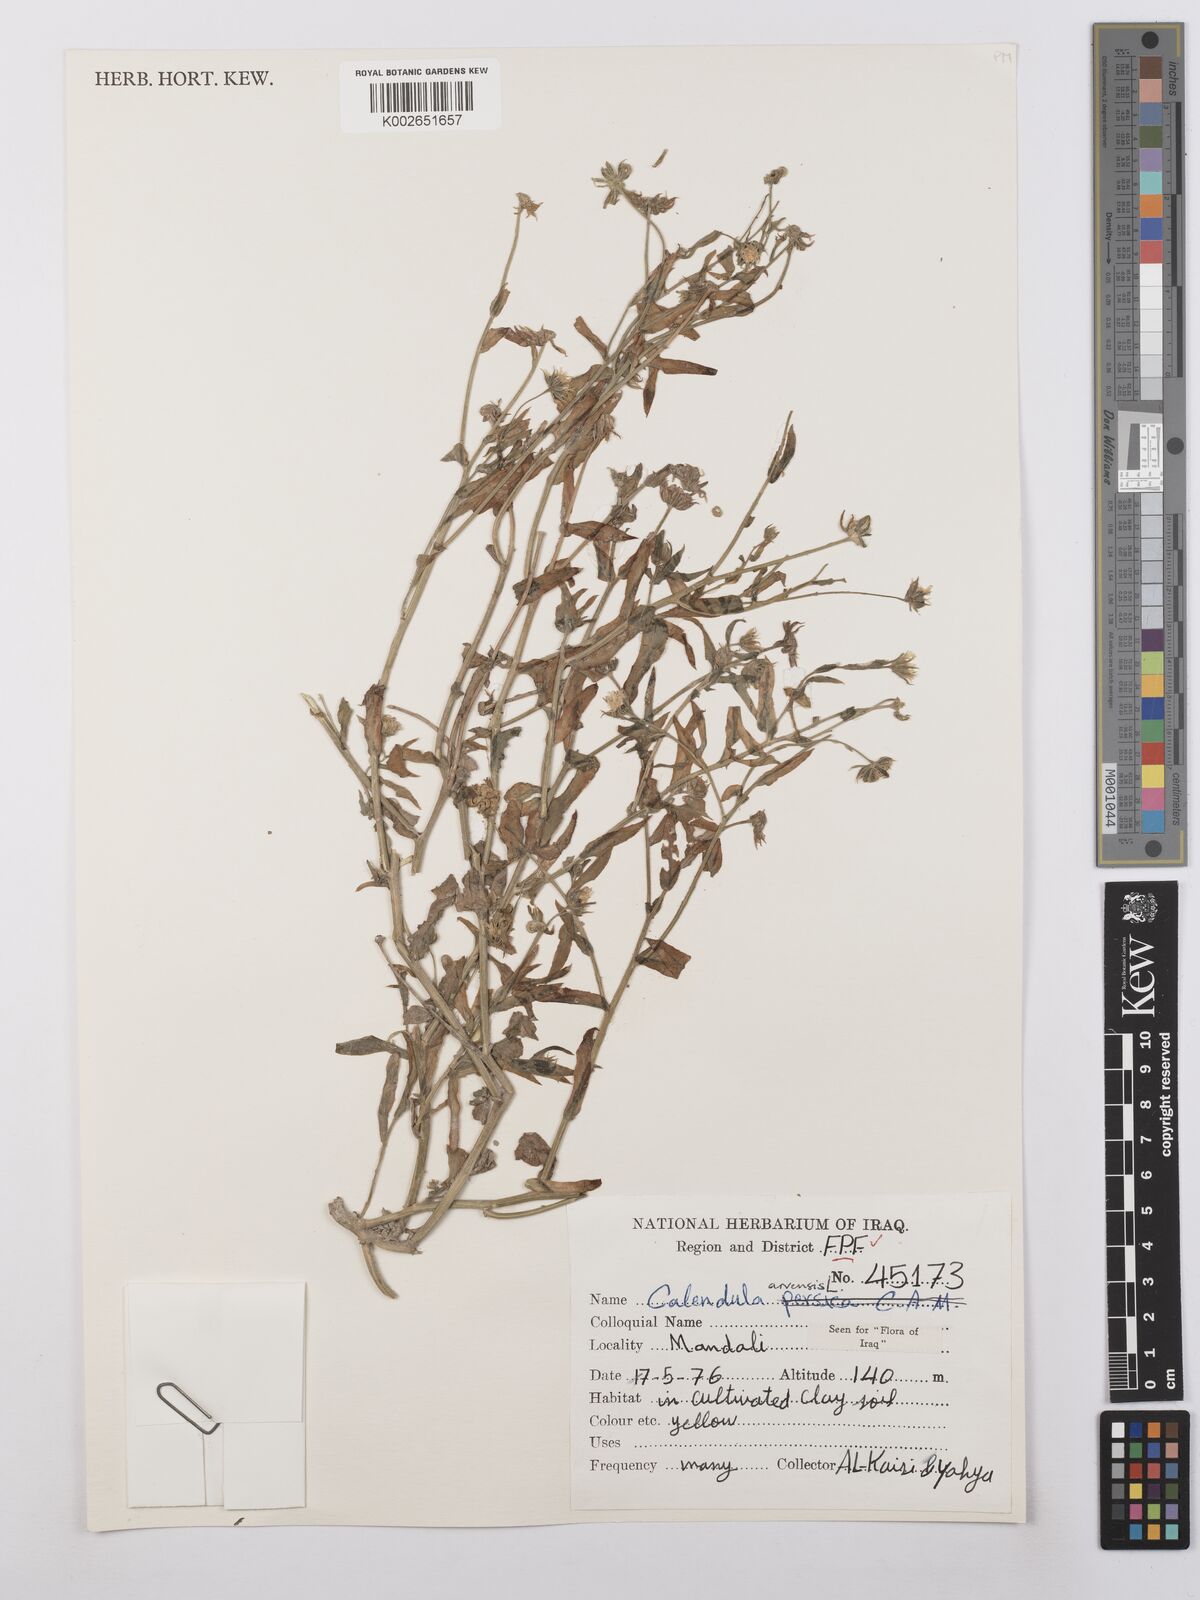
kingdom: Plantae
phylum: Tracheophyta
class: Magnoliopsida
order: Asterales
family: Asteraceae
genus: Calendula
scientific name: Calendula arvensis
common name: Field marigold
